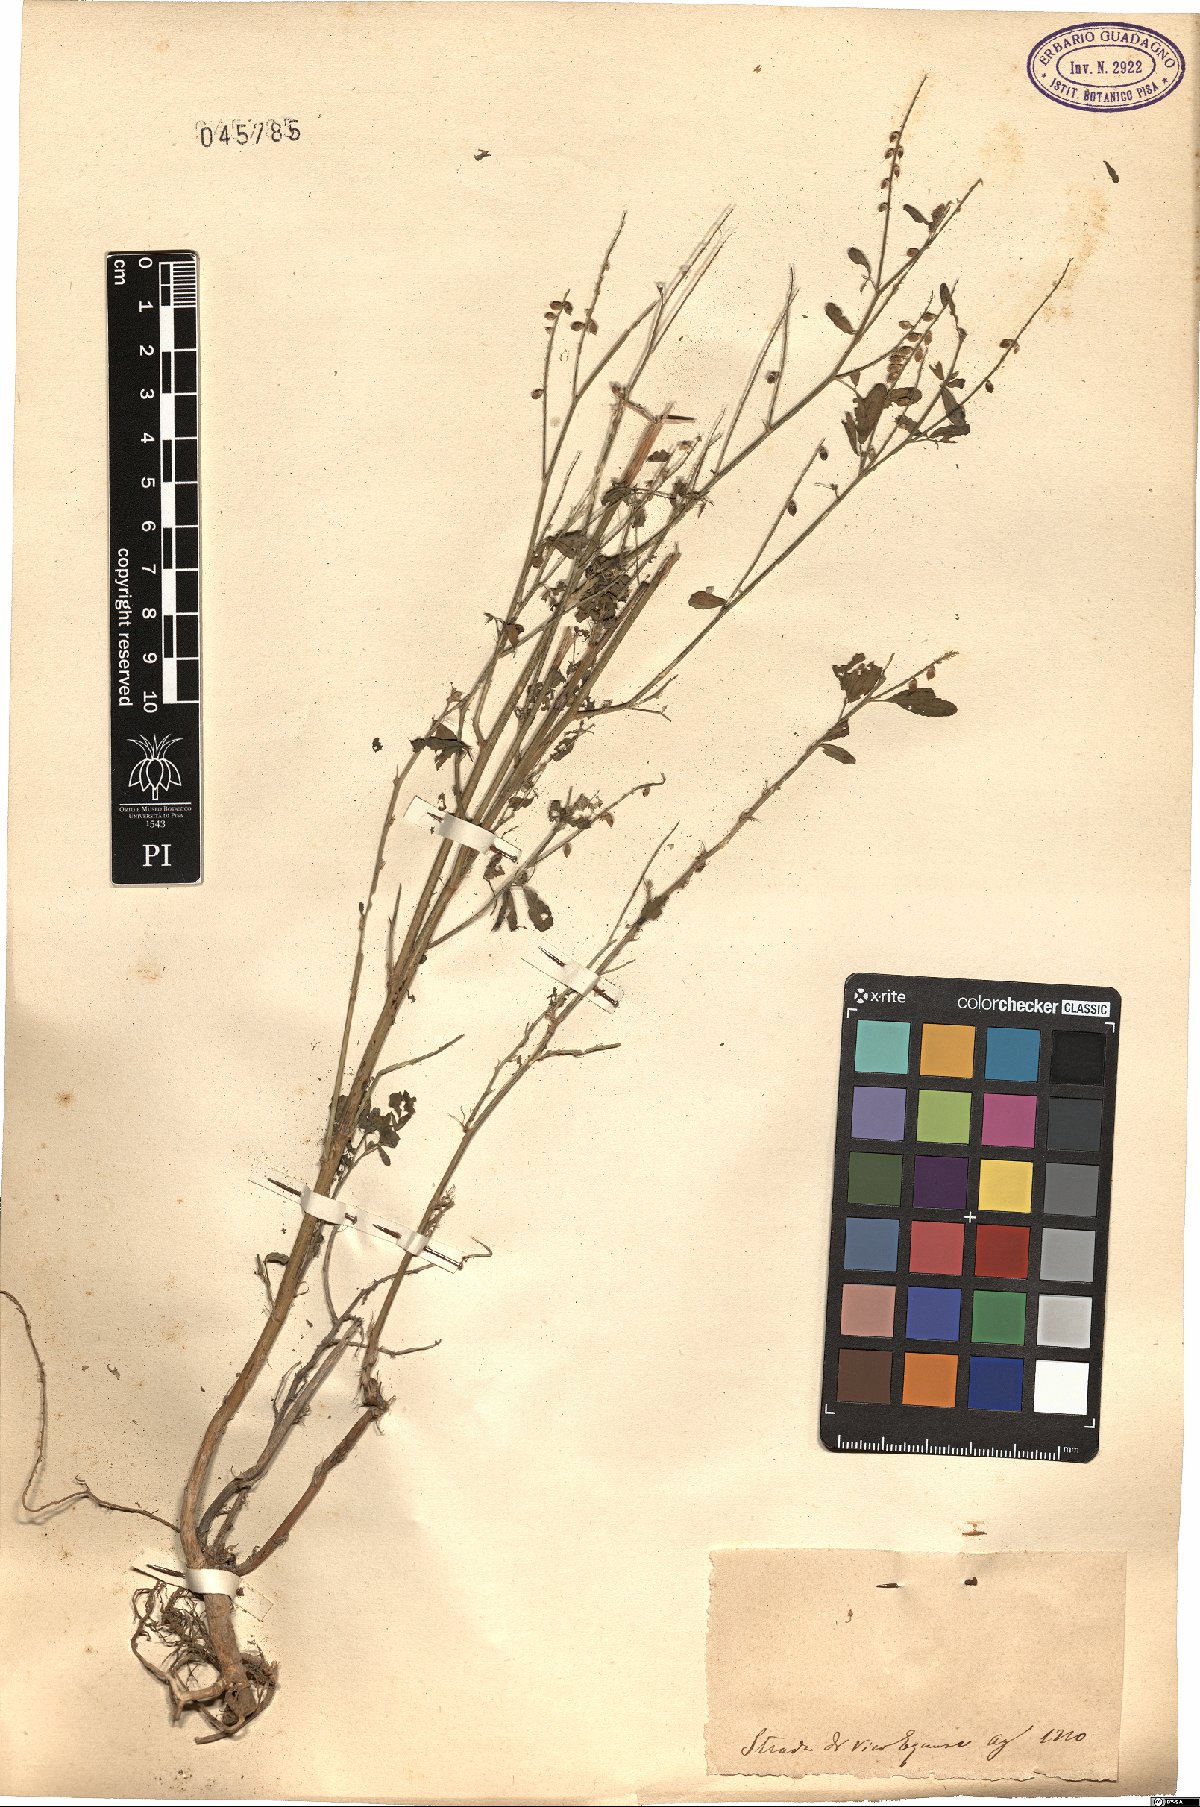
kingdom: Plantae
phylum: Tracheophyta
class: Magnoliopsida
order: Fabales
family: Fabaceae
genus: Melilotus
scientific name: Melilotus
